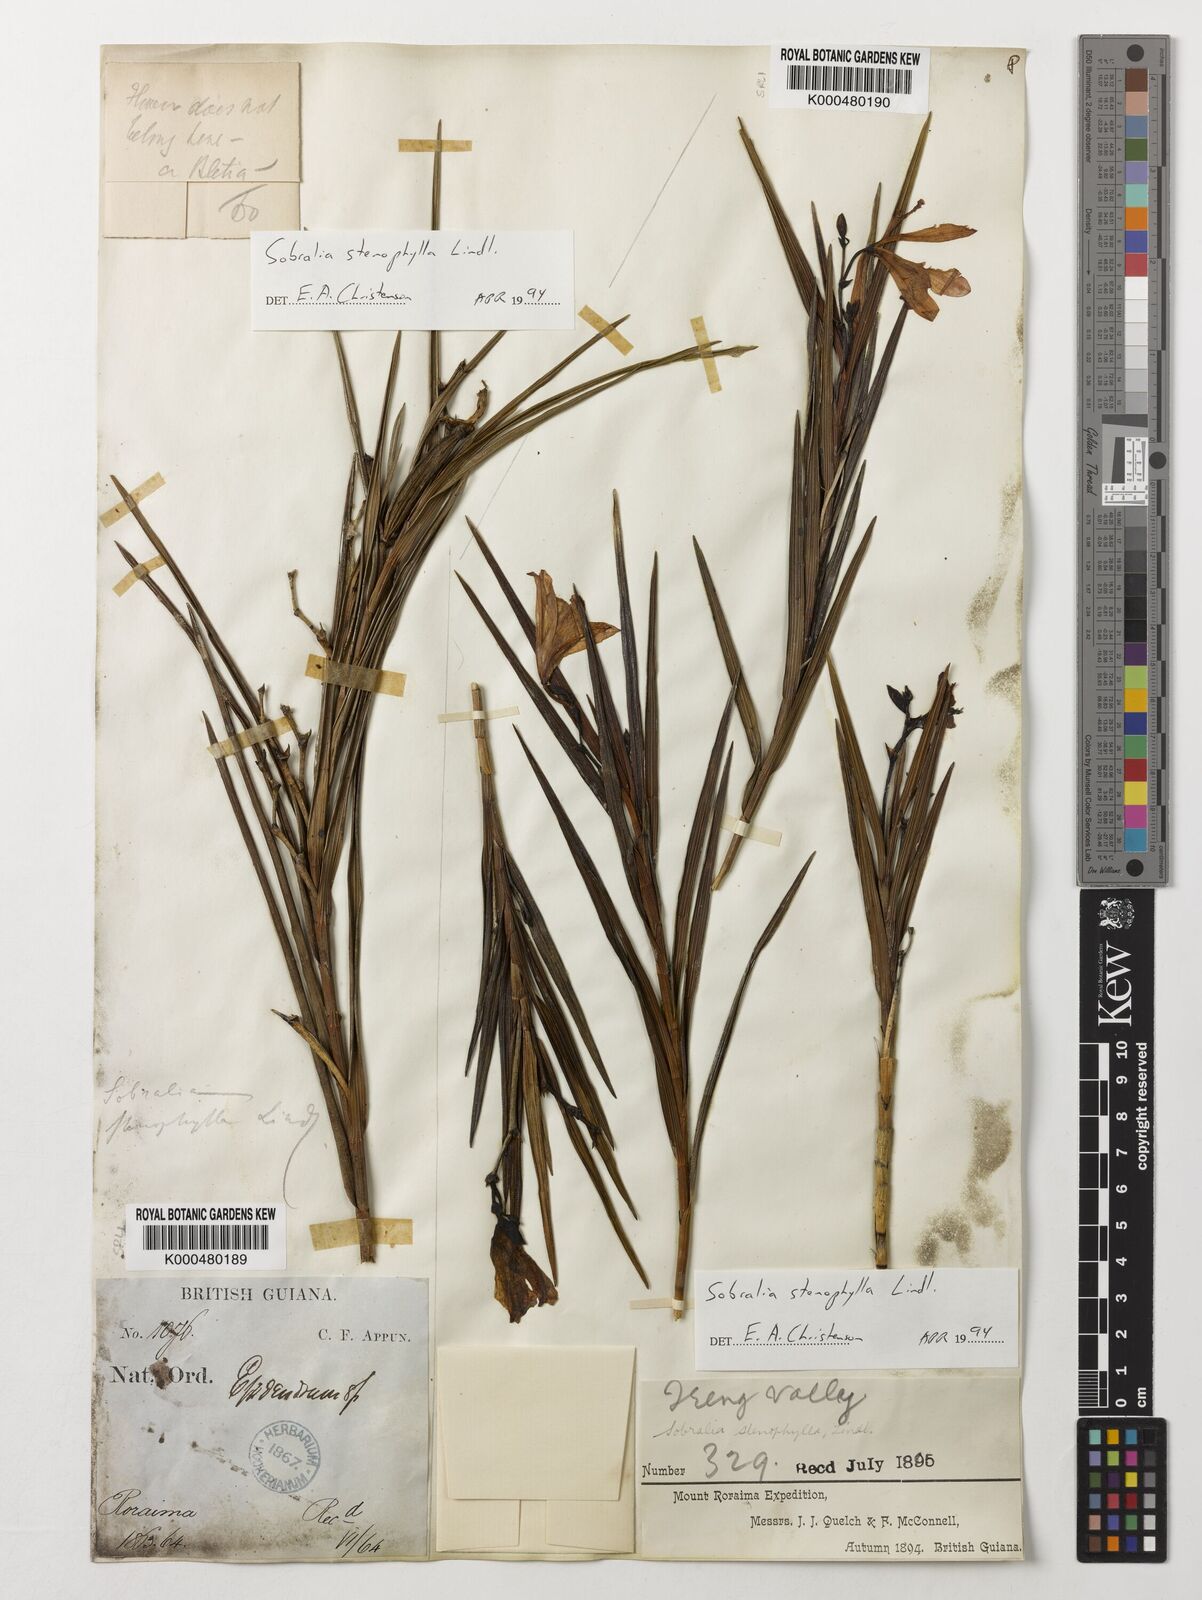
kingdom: Plantae
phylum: Tracheophyta
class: Liliopsida
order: Asparagales
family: Orchidaceae
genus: Sobralia
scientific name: Sobralia stenophylla
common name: Thin leafed sobralia
